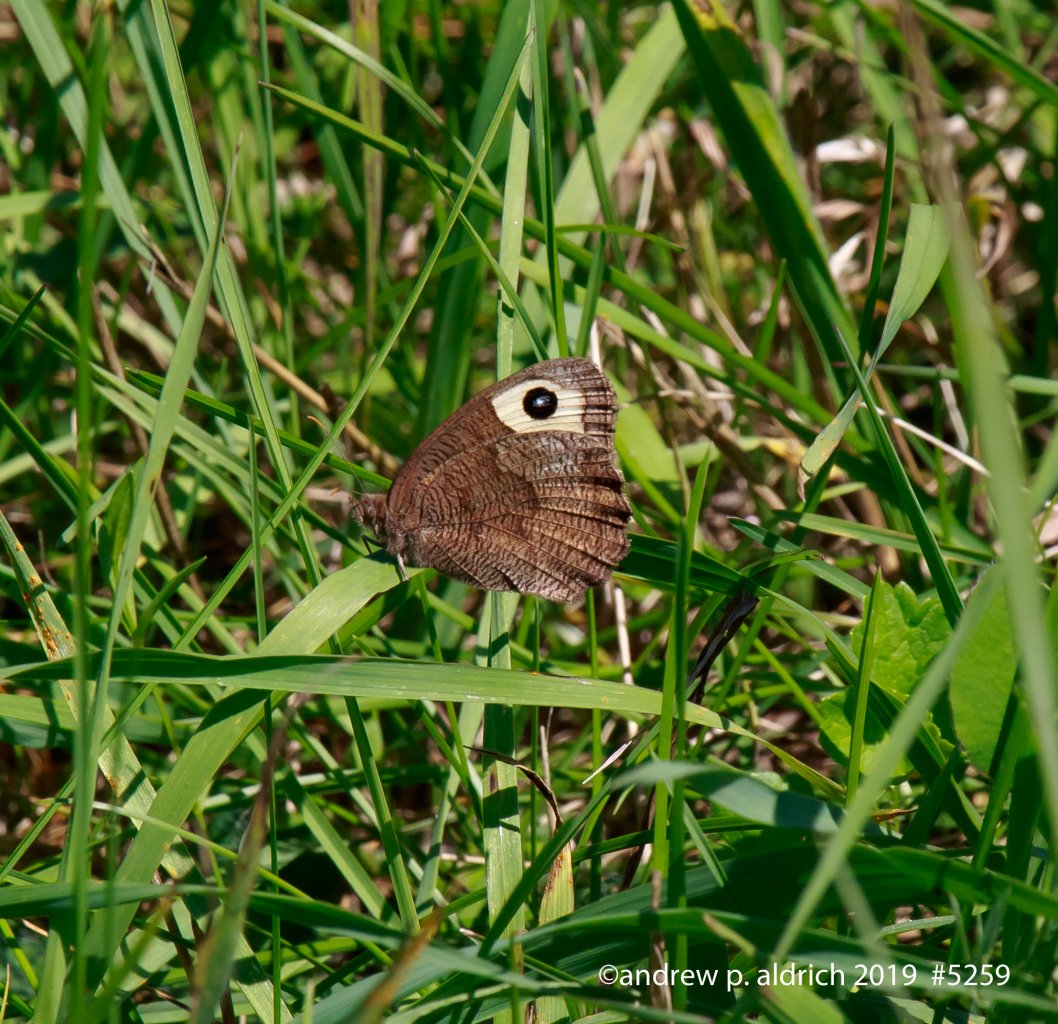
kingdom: Animalia
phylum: Arthropoda
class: Insecta
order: Lepidoptera
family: Nymphalidae
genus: Cercyonis
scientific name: Cercyonis pegala
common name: Common Wood-Nymph
